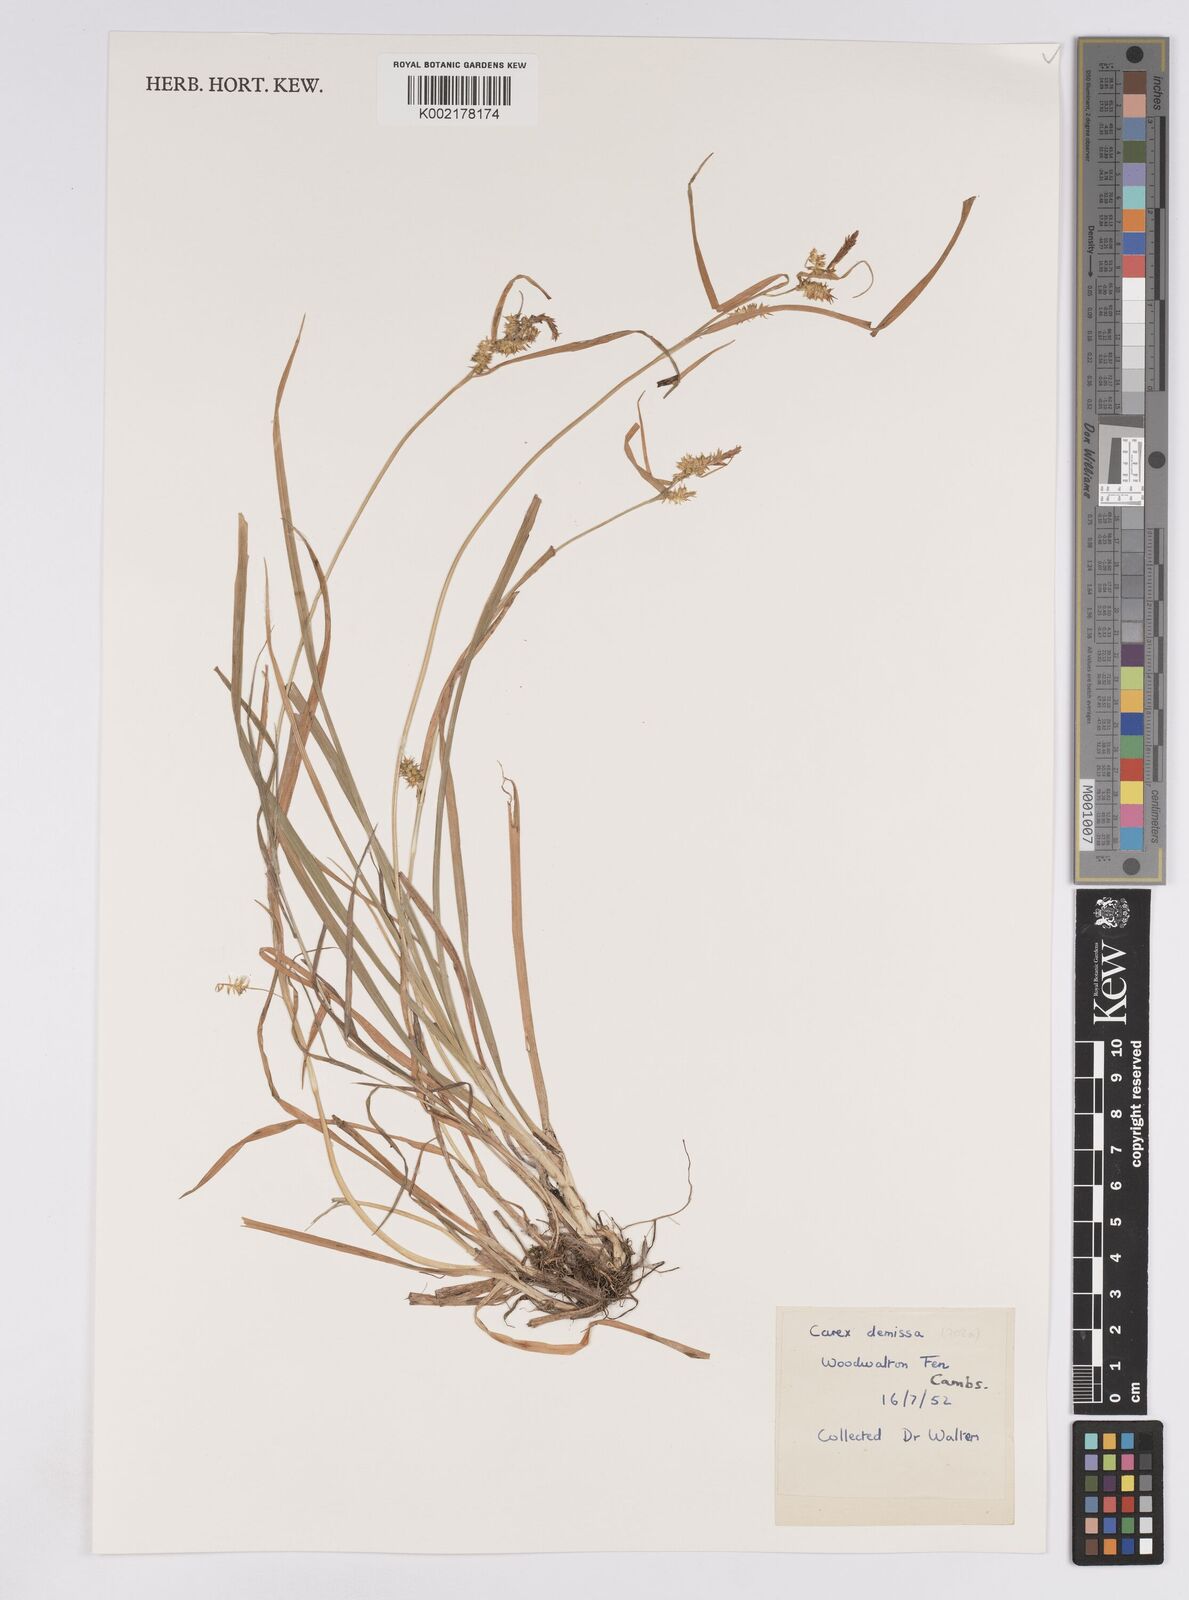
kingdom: Plantae
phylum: Tracheophyta
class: Liliopsida
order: Poales
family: Cyperaceae
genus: Carex
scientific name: Carex demissa
